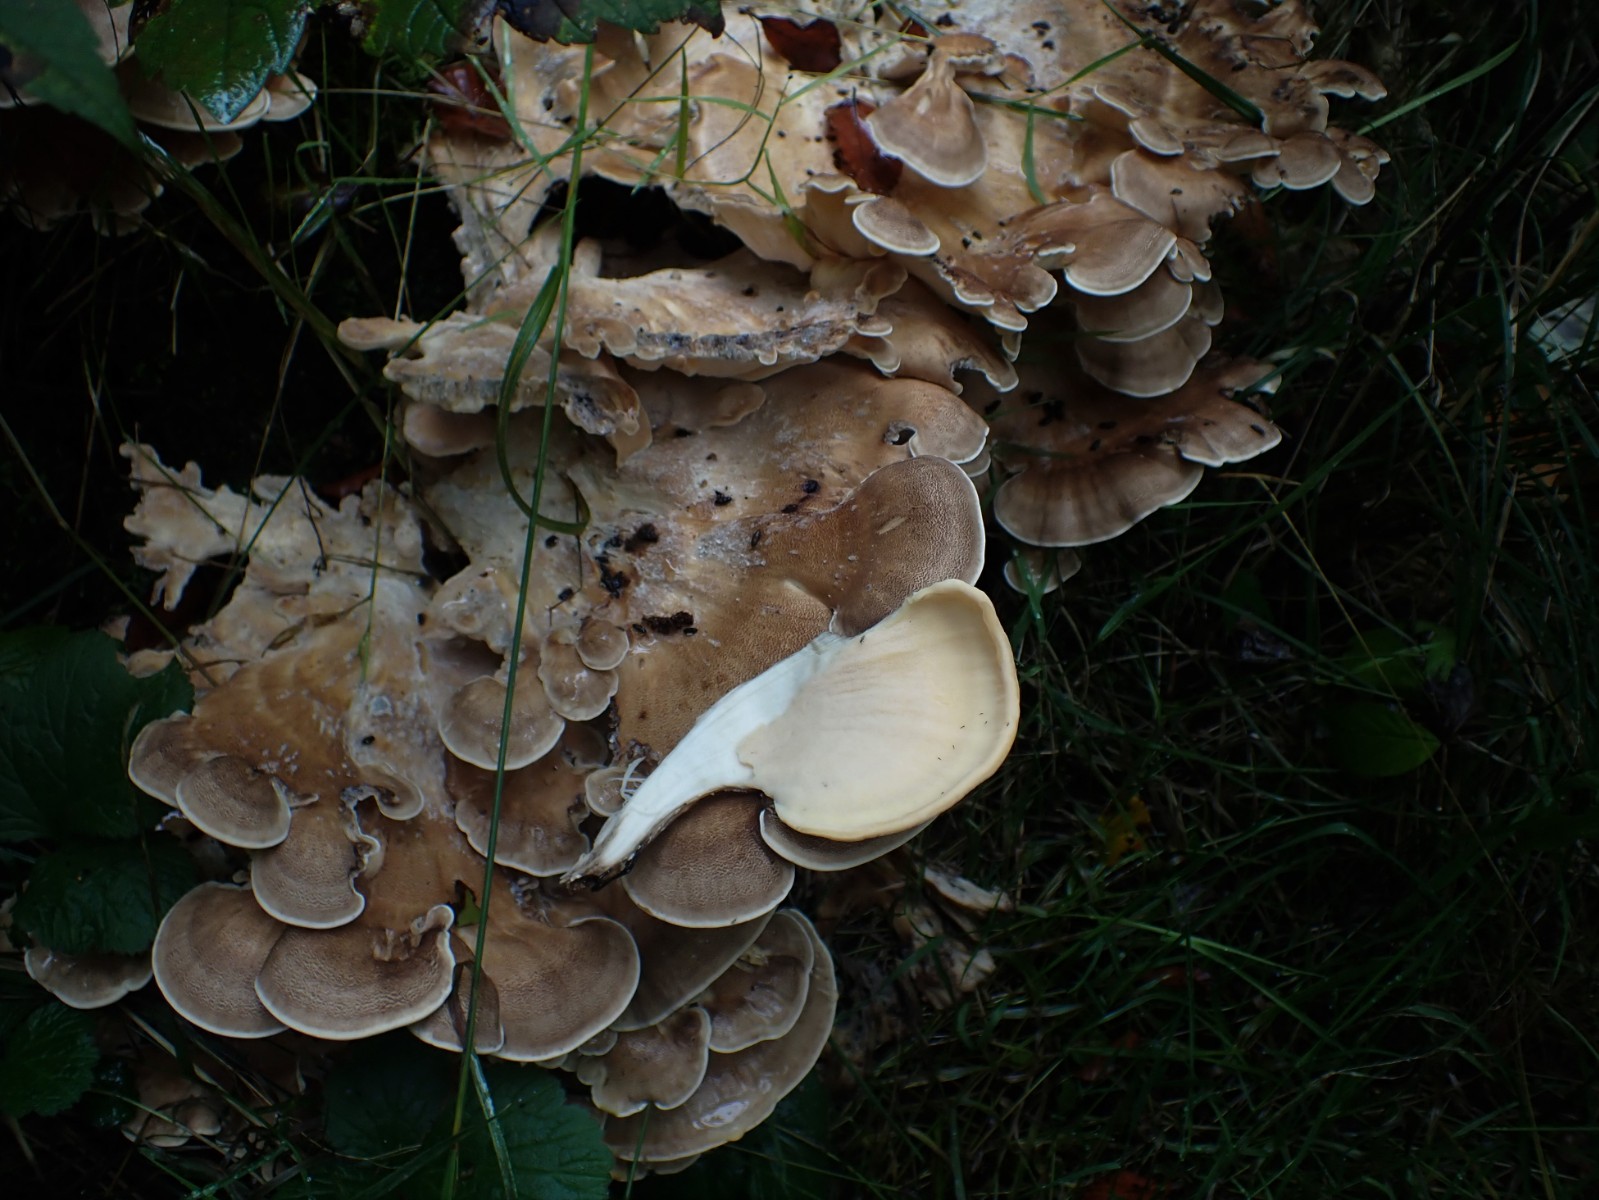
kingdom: Fungi
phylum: Basidiomycota
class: Agaricomycetes
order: Polyporales
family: Meripilaceae
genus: Meripilus
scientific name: Meripilus giganteus
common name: kæmpeporesvamp
